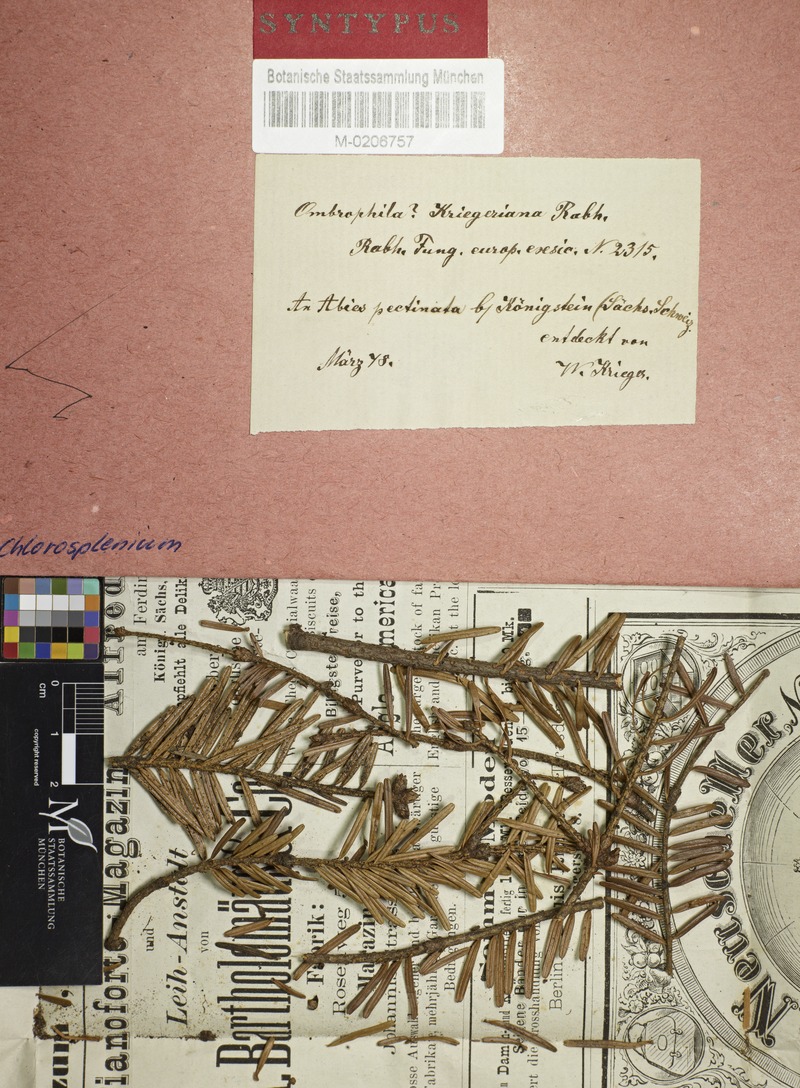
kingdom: Fungi
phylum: Ascomycota
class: Leotiomycetes
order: Helotiales
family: Rutstroemiaceae
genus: Rutstroemia
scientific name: Rutstroemia elatina
